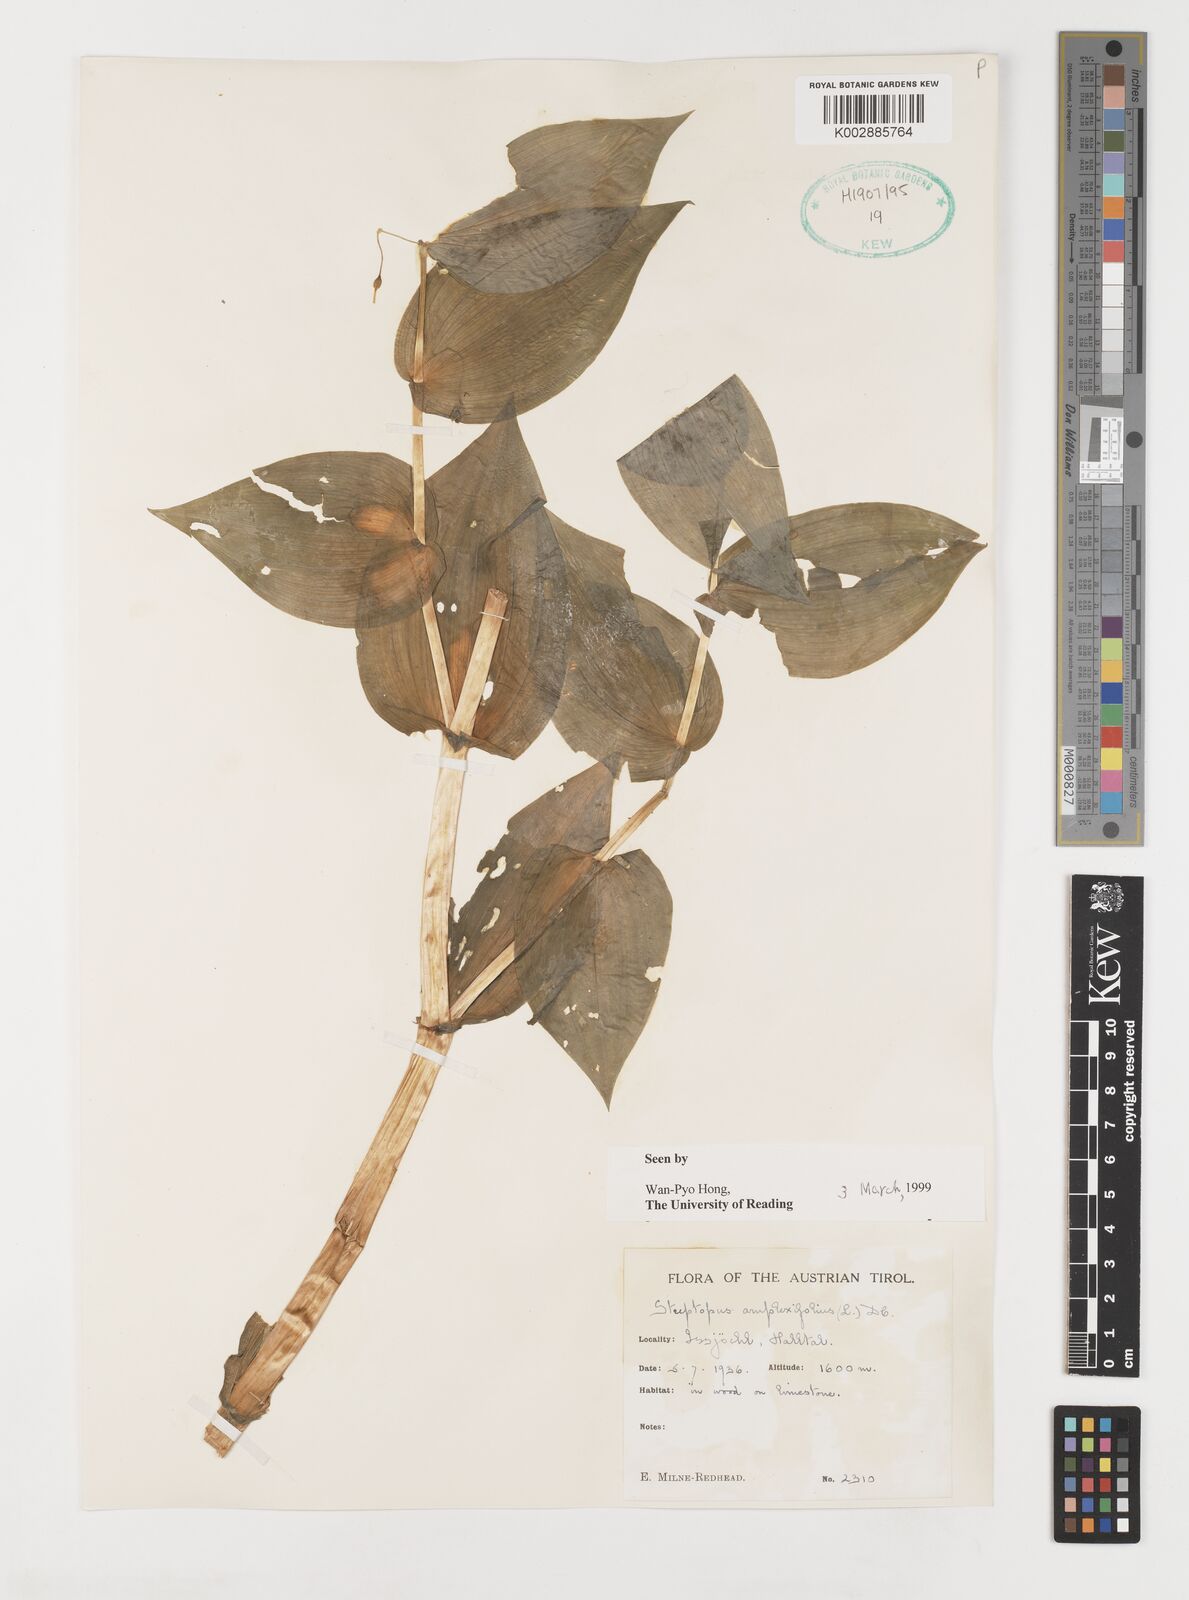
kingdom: Plantae
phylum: Tracheophyta
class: Liliopsida
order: Liliales
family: Liliaceae
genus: Streptopus
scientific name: Streptopus amplexifolius
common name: Clasp twisted stalk
